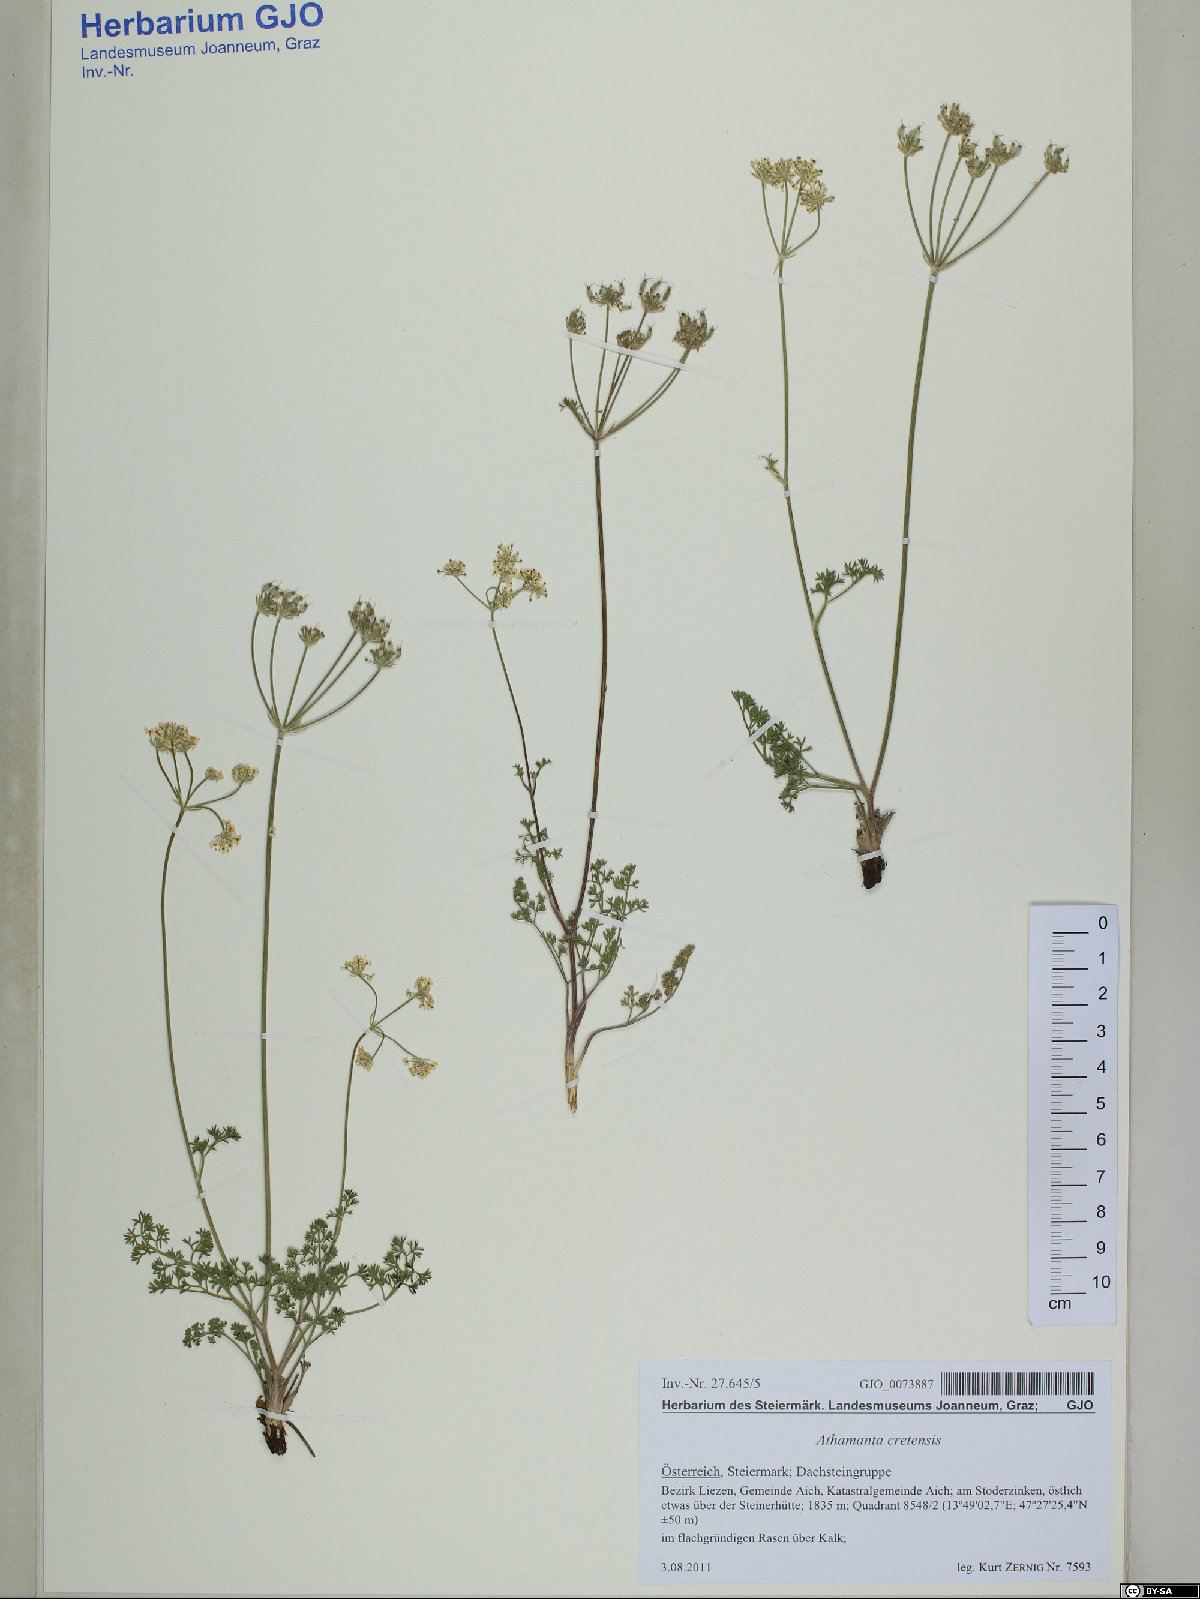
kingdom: Plantae
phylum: Tracheophyta
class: Magnoliopsida
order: Apiales
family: Apiaceae
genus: Athamanta
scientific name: Athamanta cretensis
